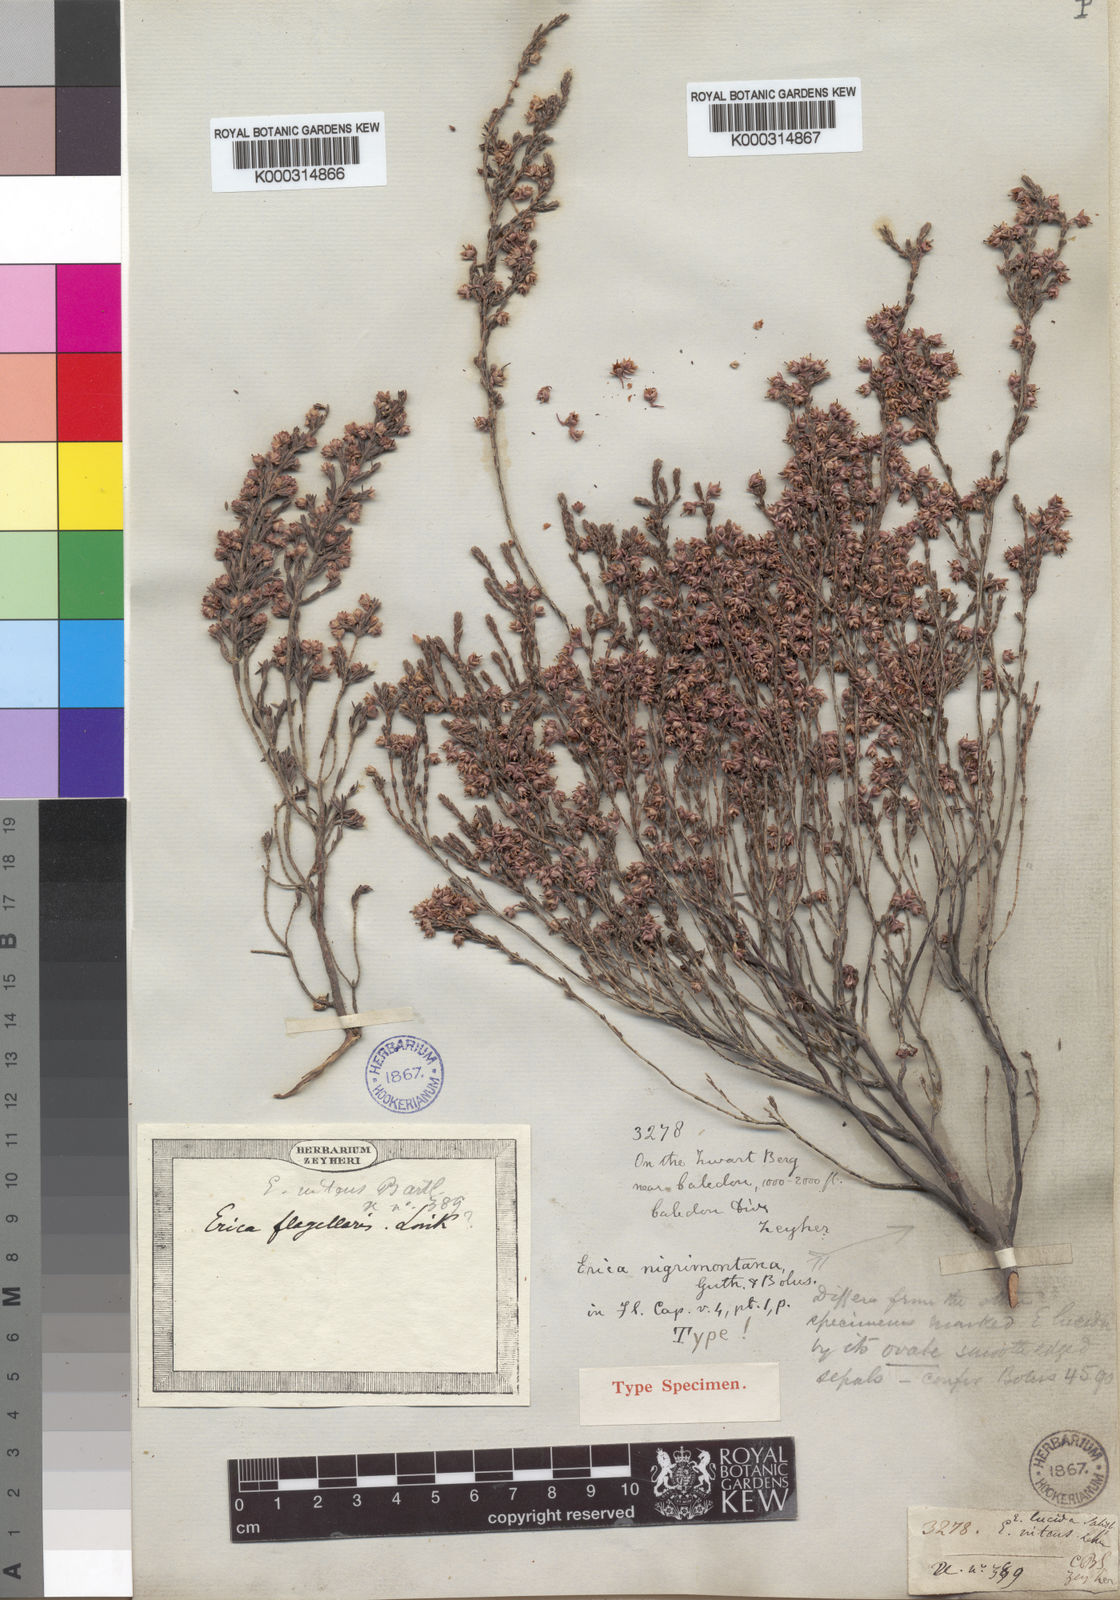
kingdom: Plantae
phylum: Tracheophyta
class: Magnoliopsida
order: Ericales
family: Ericaceae
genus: Erica
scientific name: Erica nigrimontana
